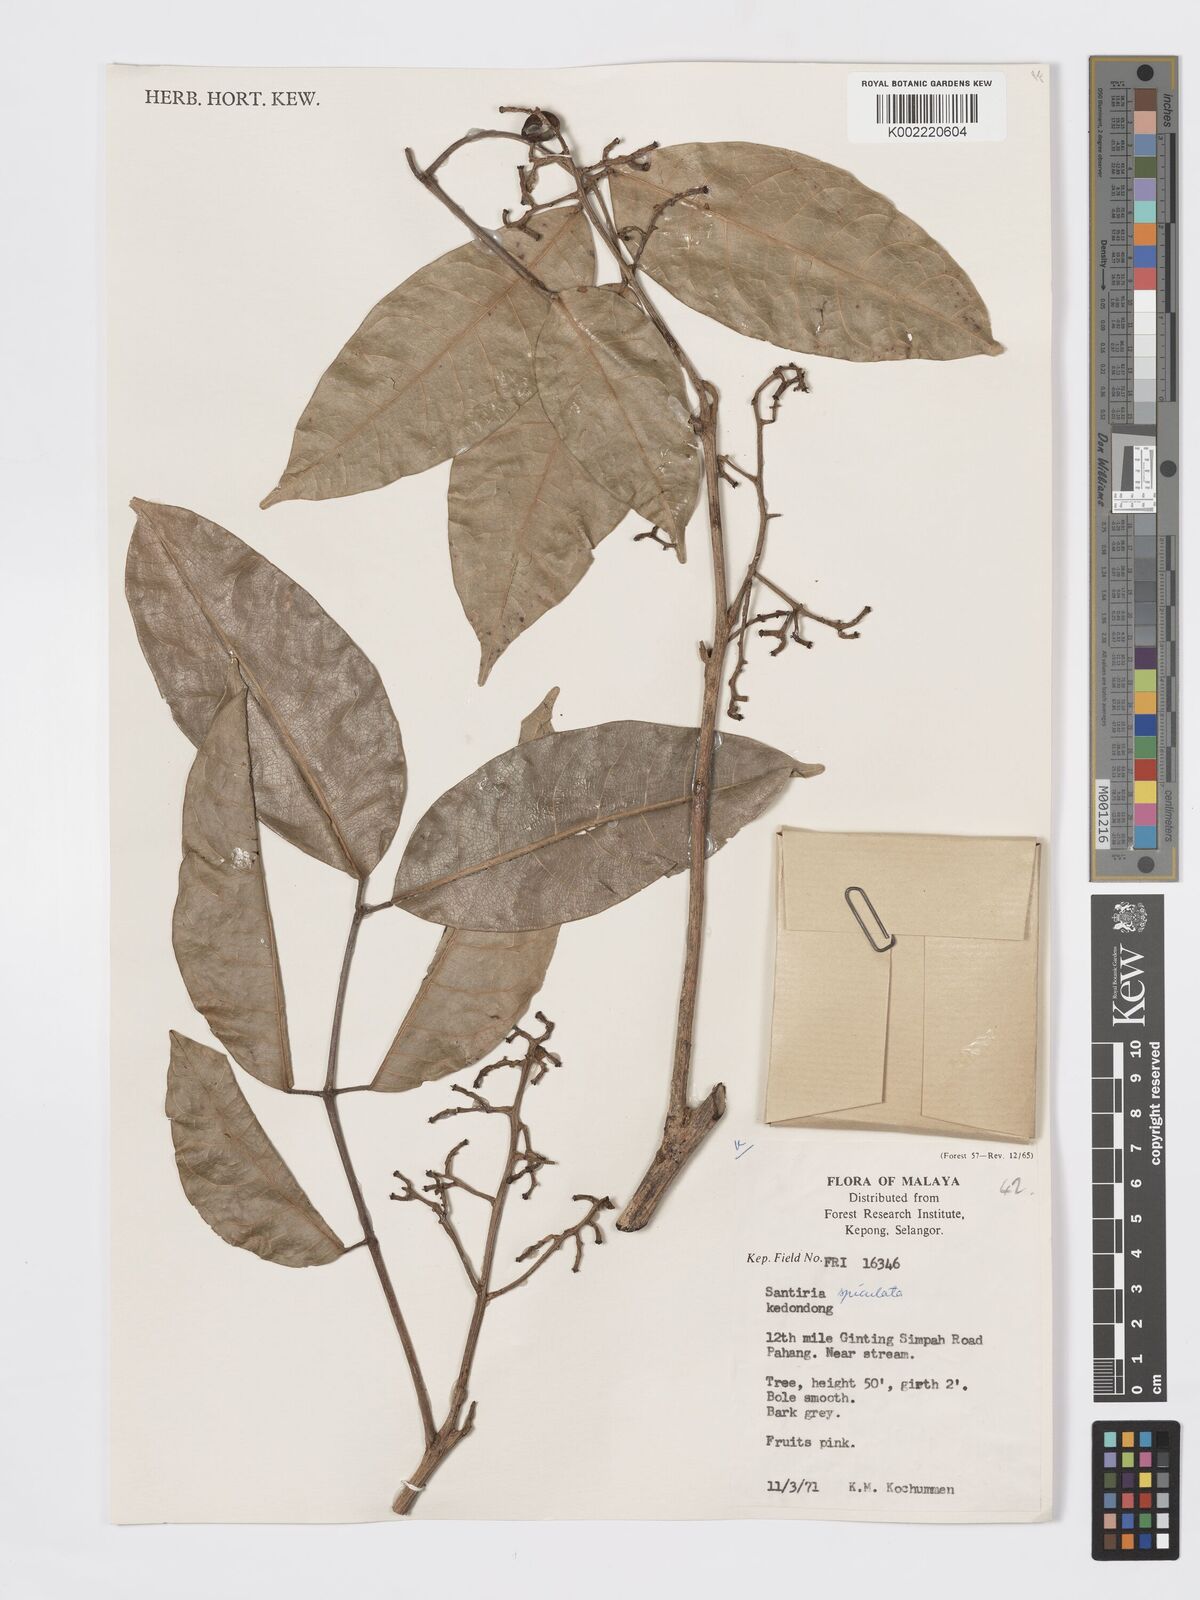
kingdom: Plantae
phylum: Tracheophyta
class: Magnoliopsida
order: Sapindales
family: Burseraceae
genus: Santiria
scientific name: Santiria apiculata
